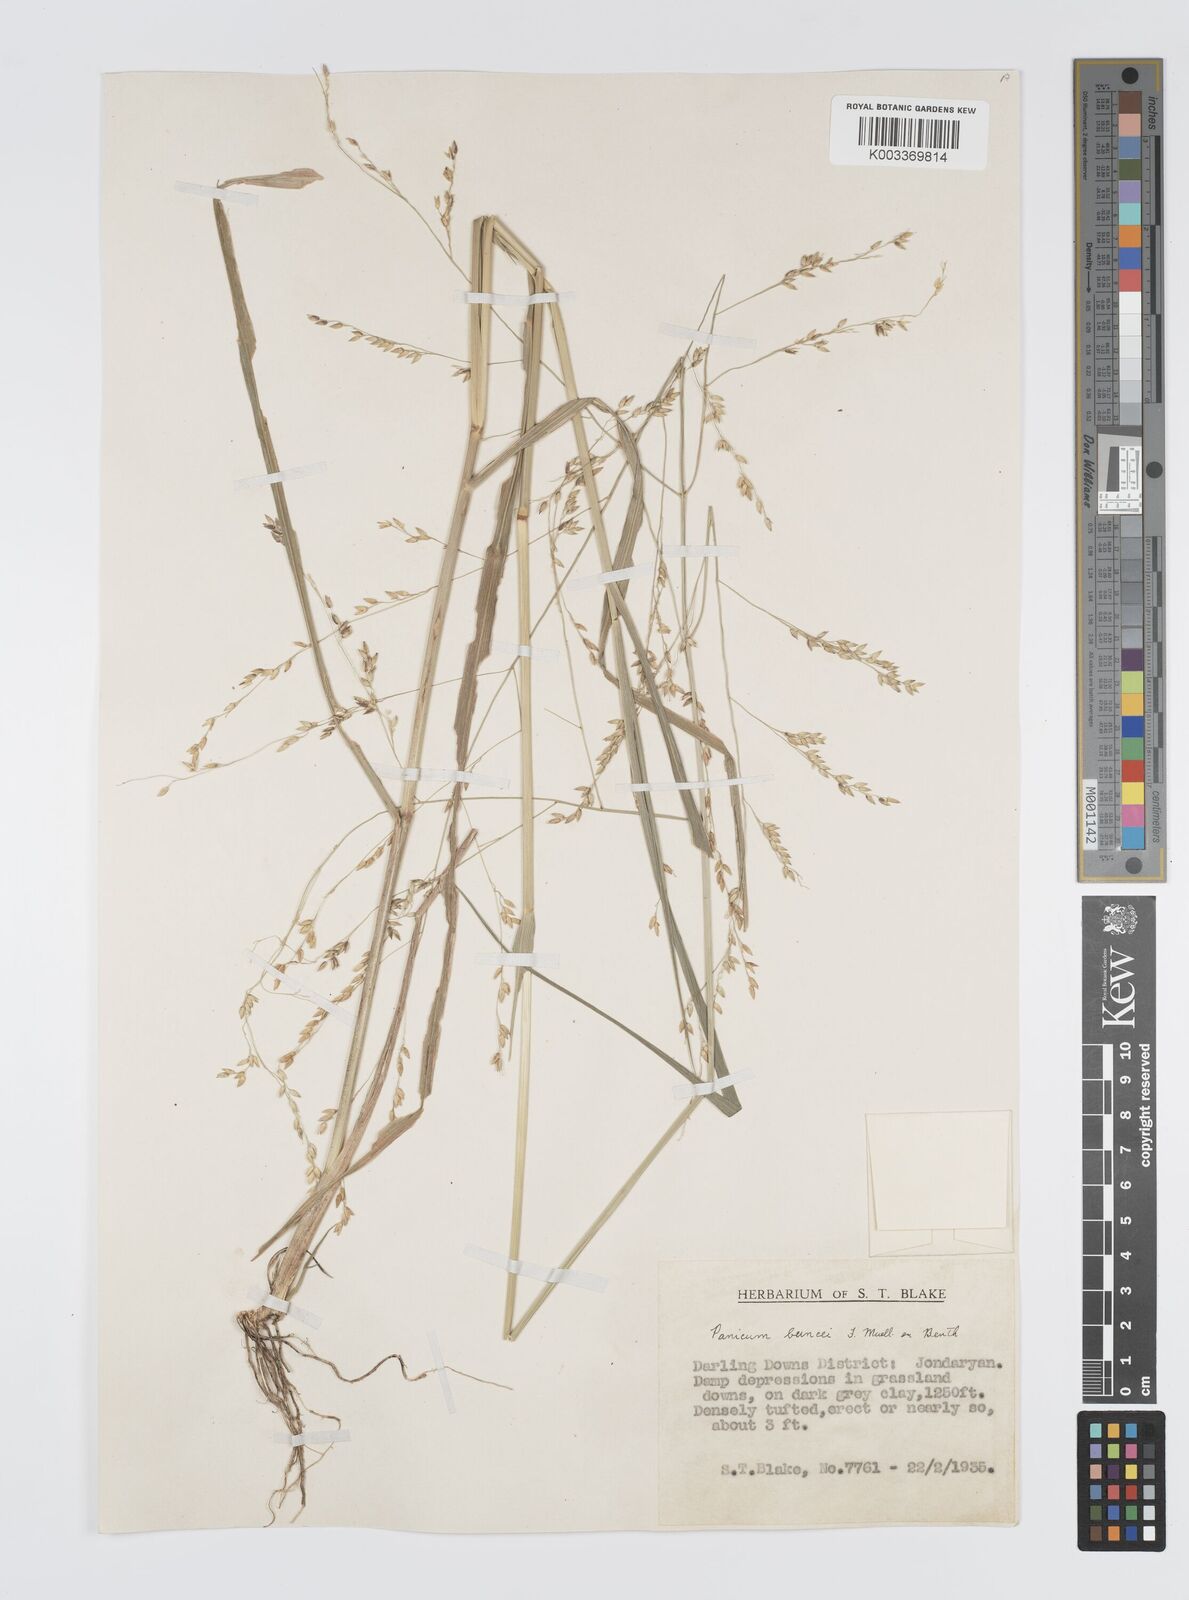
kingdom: Plantae
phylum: Tracheophyta
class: Liliopsida
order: Poales
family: Poaceae
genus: Panicum
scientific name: Panicum buncei
